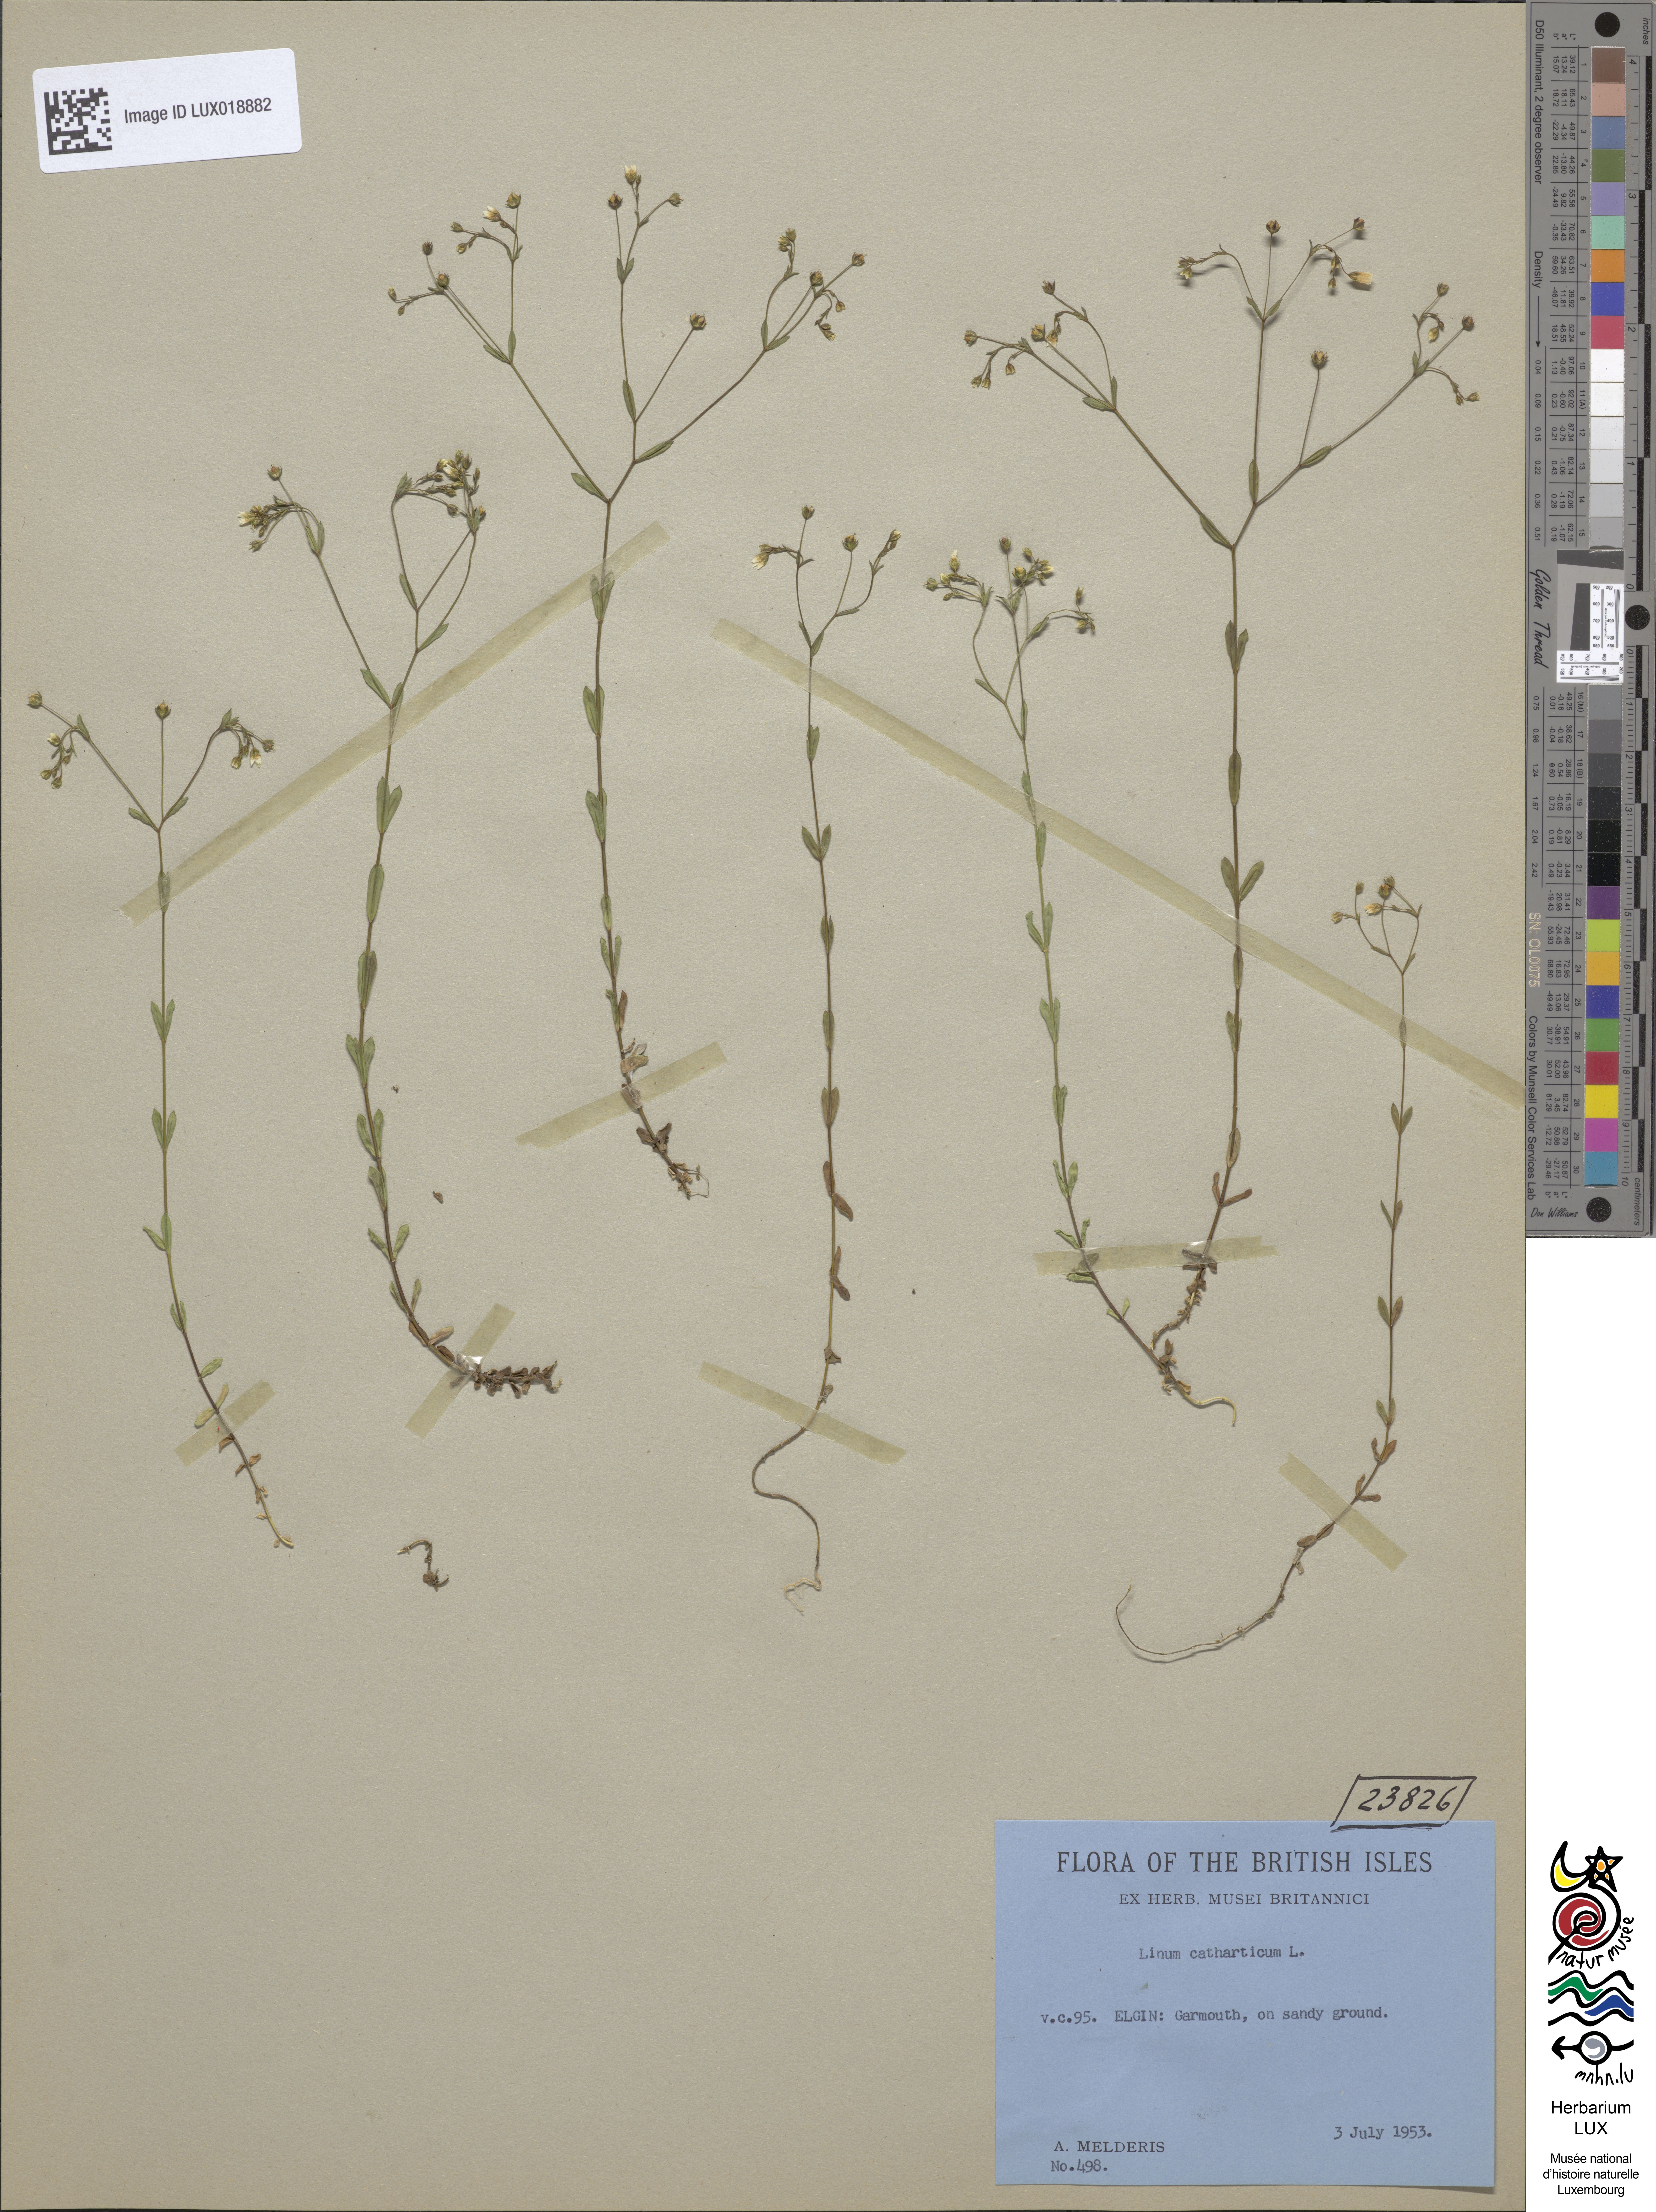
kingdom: Plantae
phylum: Tracheophyta
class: Magnoliopsida
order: Malpighiales
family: Linaceae
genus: Linum
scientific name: Linum catharticum
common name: Fairy flax
